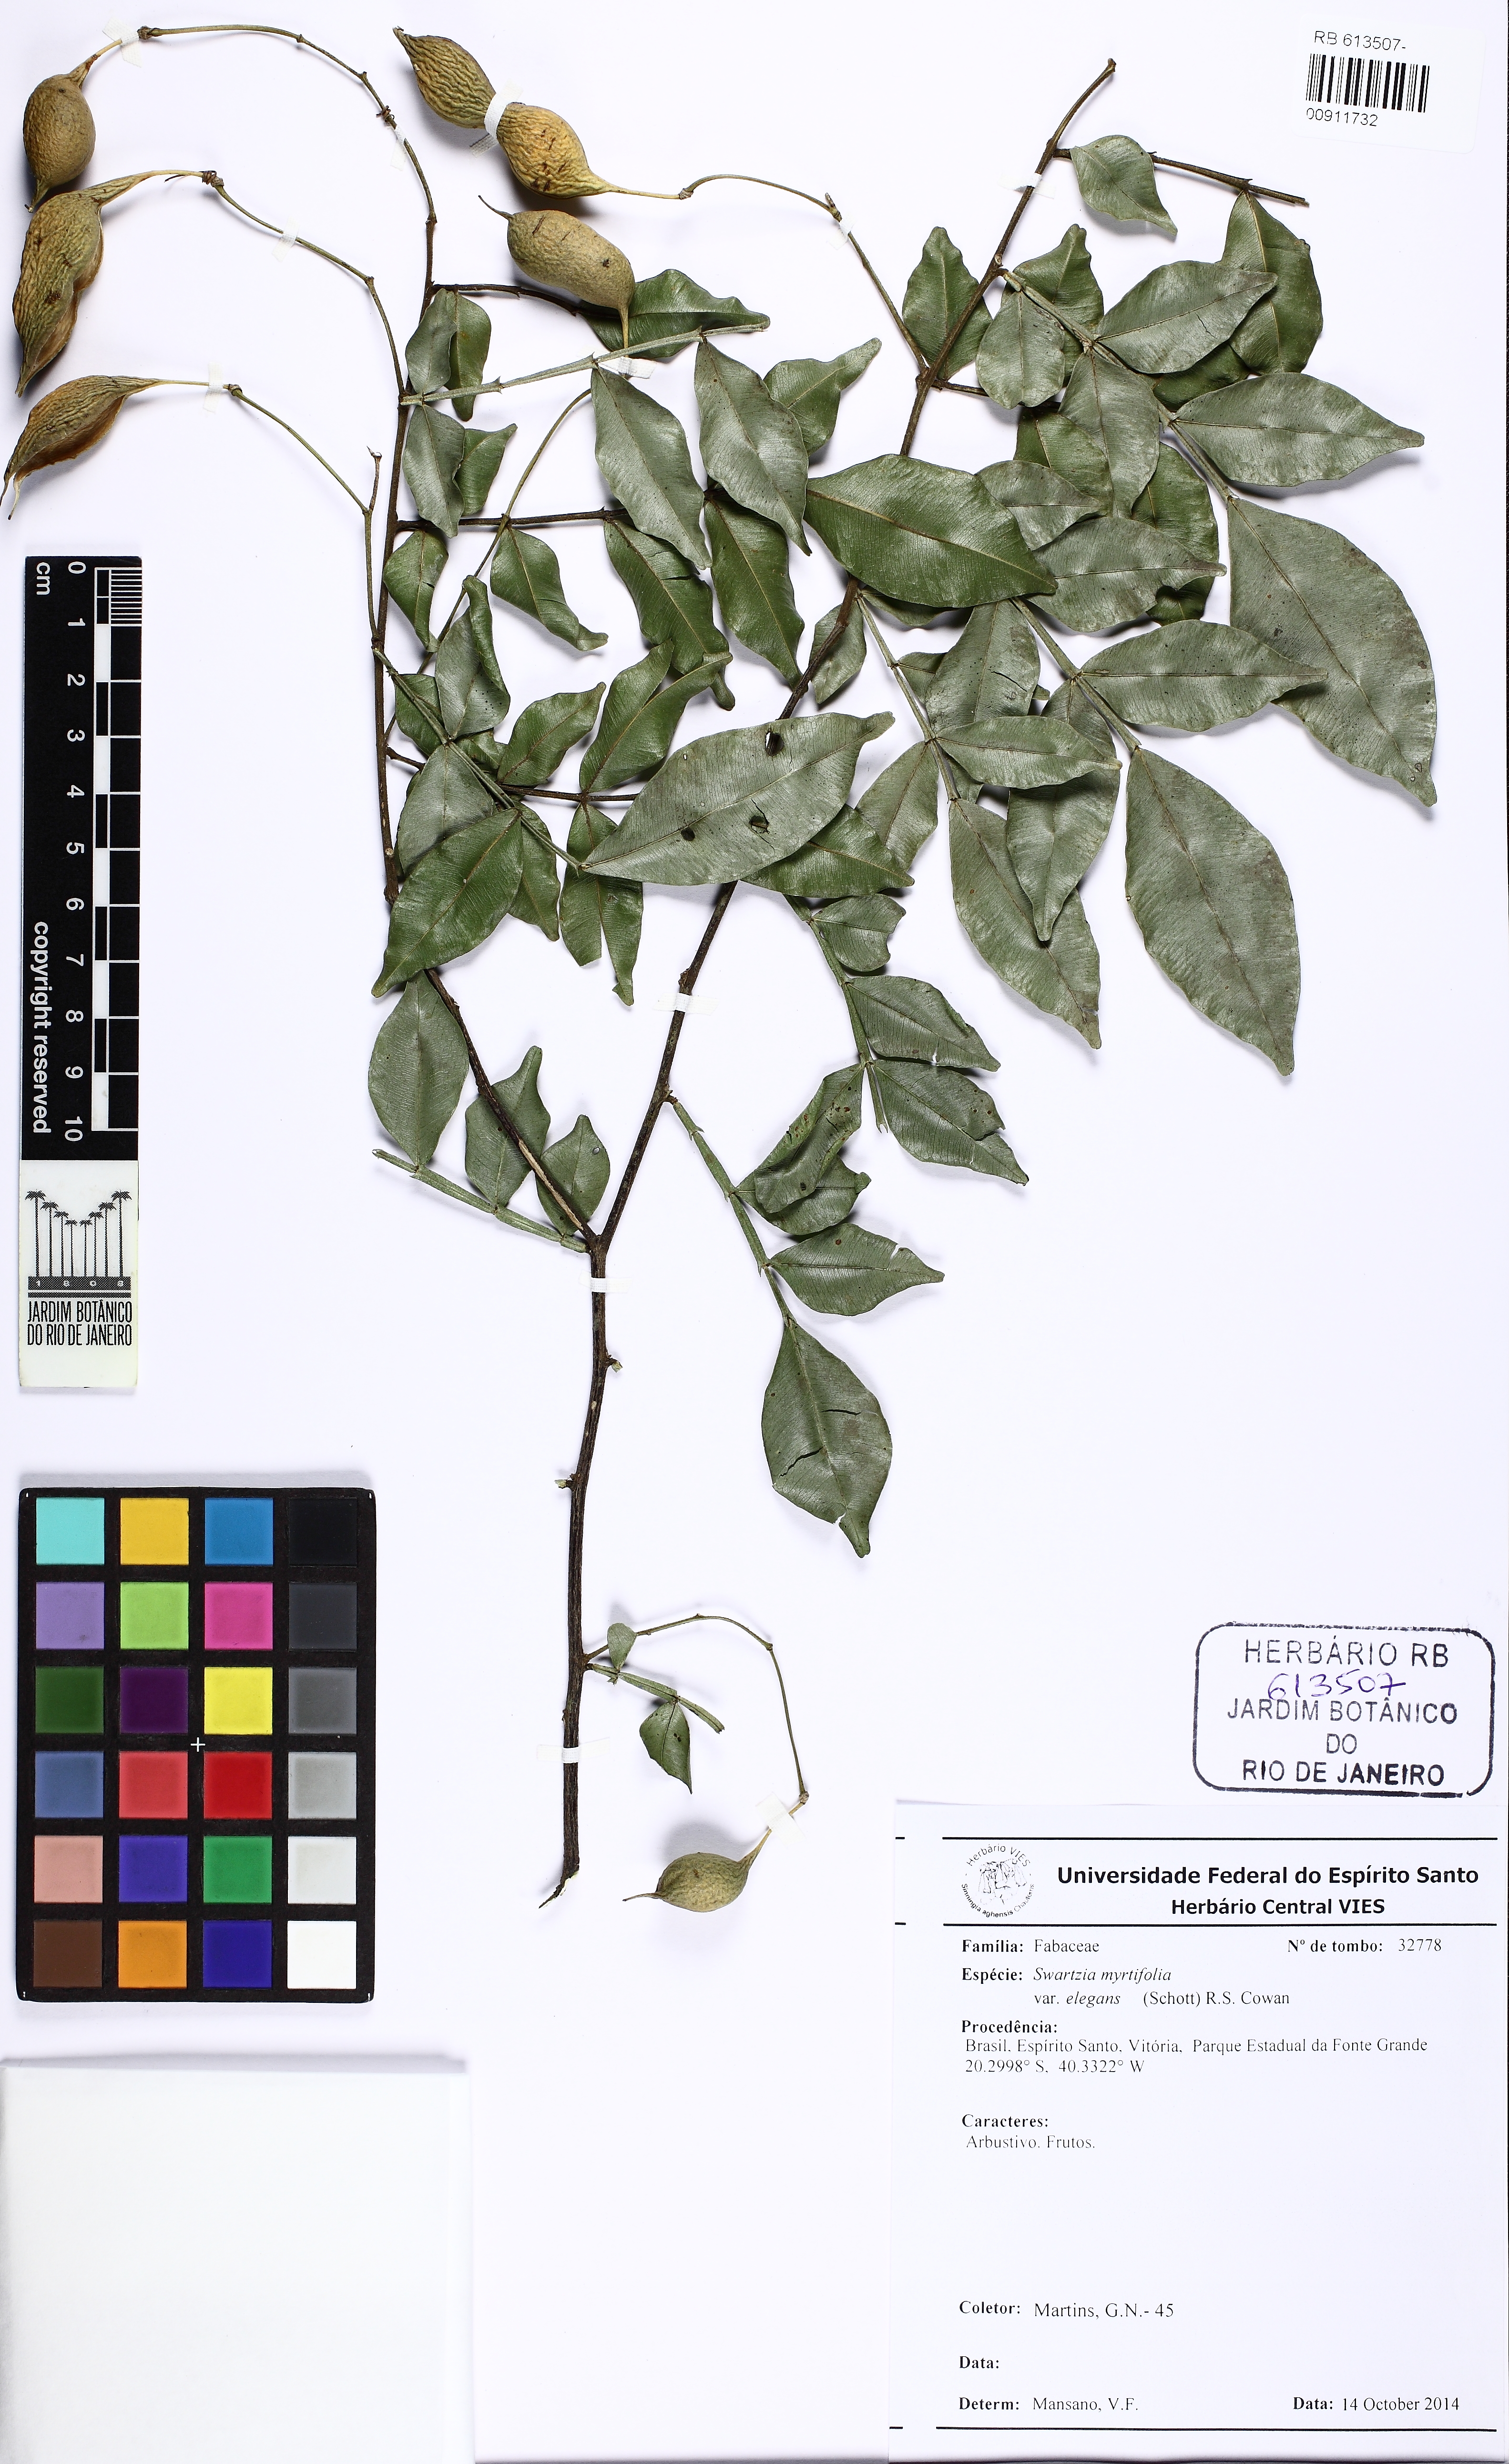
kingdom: Plantae
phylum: Tracheophyta
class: Magnoliopsida
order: Fabales
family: Fabaceae
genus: Swartzia
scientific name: Swartzia myrtifolia
